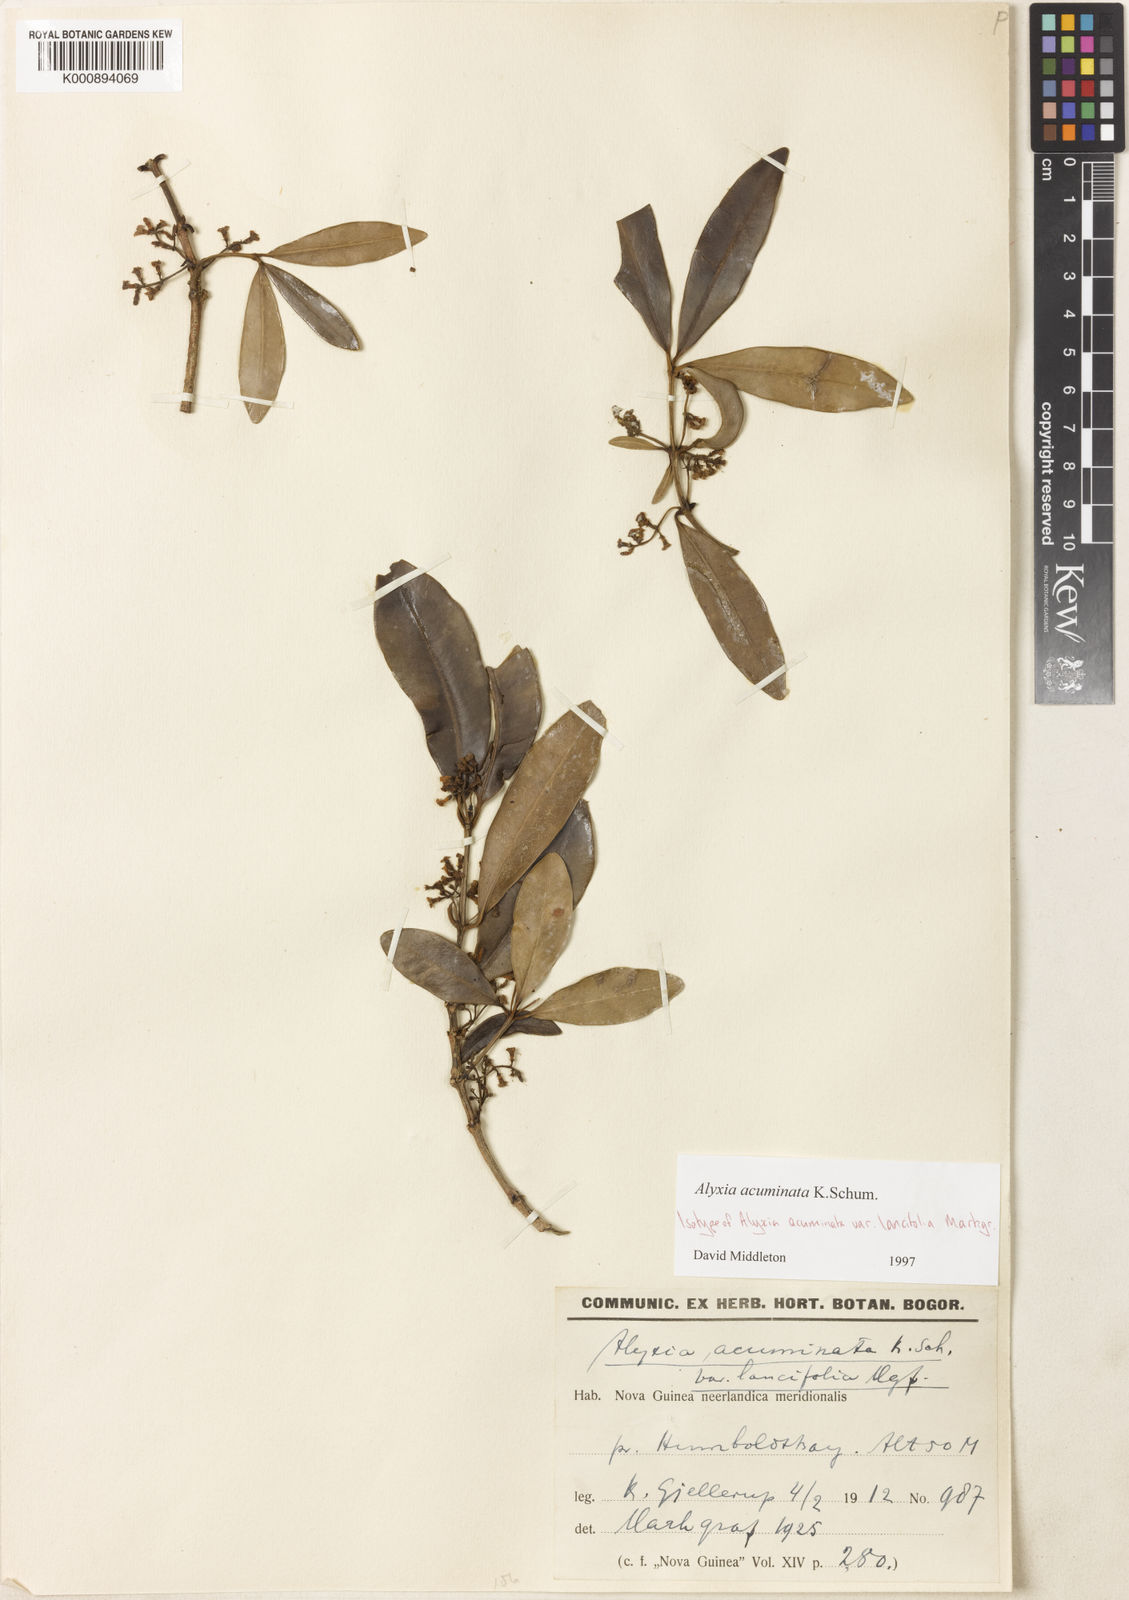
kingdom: Plantae
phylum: Tracheophyta
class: Magnoliopsida
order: Gentianales
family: Apocynaceae
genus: Alyxia
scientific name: Alyxia acuminata
